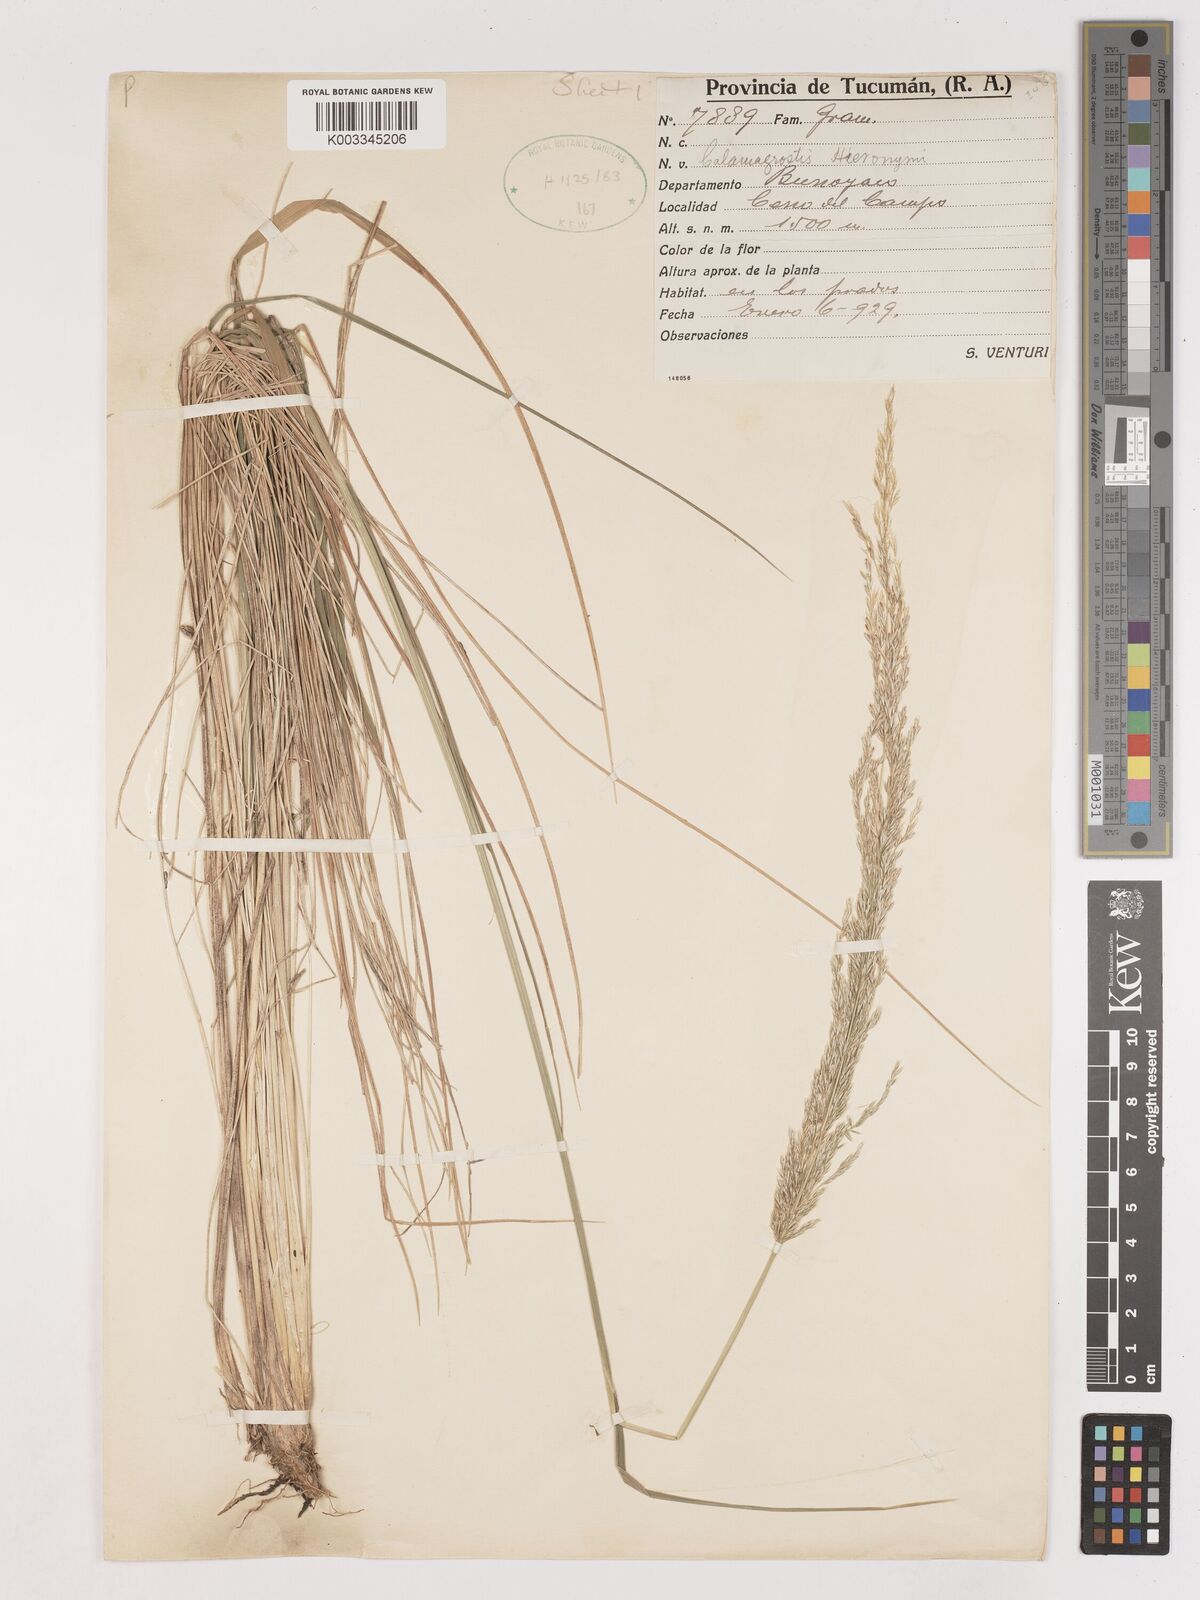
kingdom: Plantae
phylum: Tracheophyta
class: Liliopsida
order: Poales
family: Poaceae
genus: Cinnagrostis
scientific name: Cinnagrostis hieronymi
